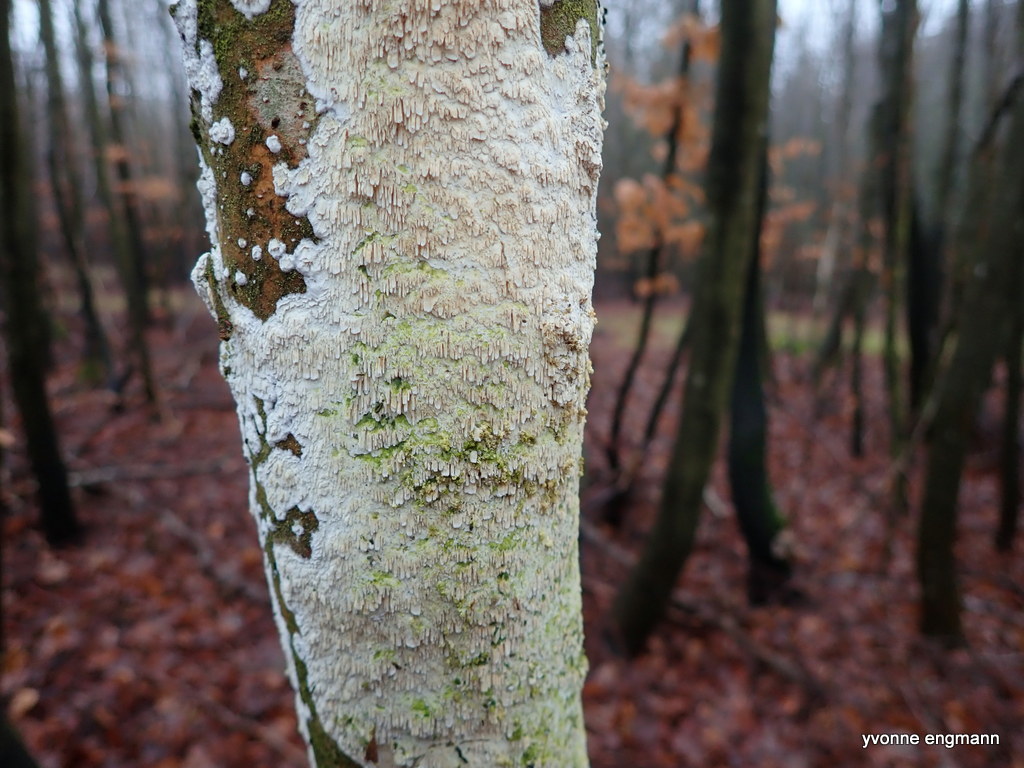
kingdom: Fungi
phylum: Basidiomycota
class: Agaricomycetes
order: Hymenochaetales
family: Schizoporaceae
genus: Schizopora
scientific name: Schizopora paradoxa
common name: hvid tandsvamp
